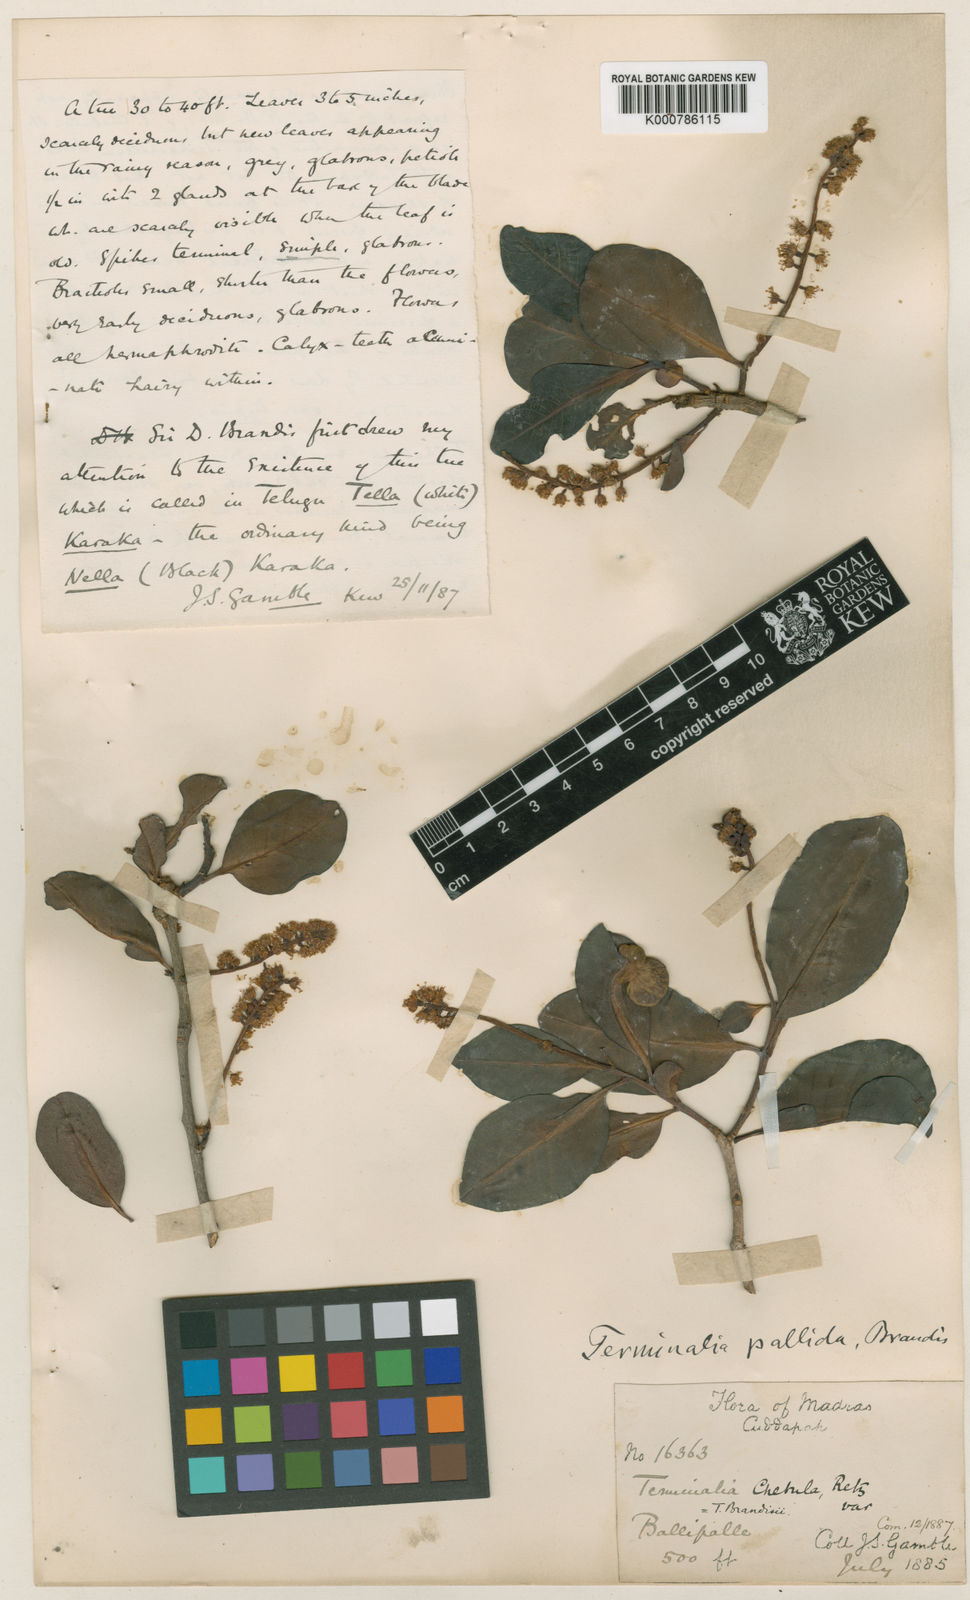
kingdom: Plantae
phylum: Tracheophyta
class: Magnoliopsida
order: Myrtales
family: Combretaceae
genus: Terminalia
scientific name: Terminalia pallida
